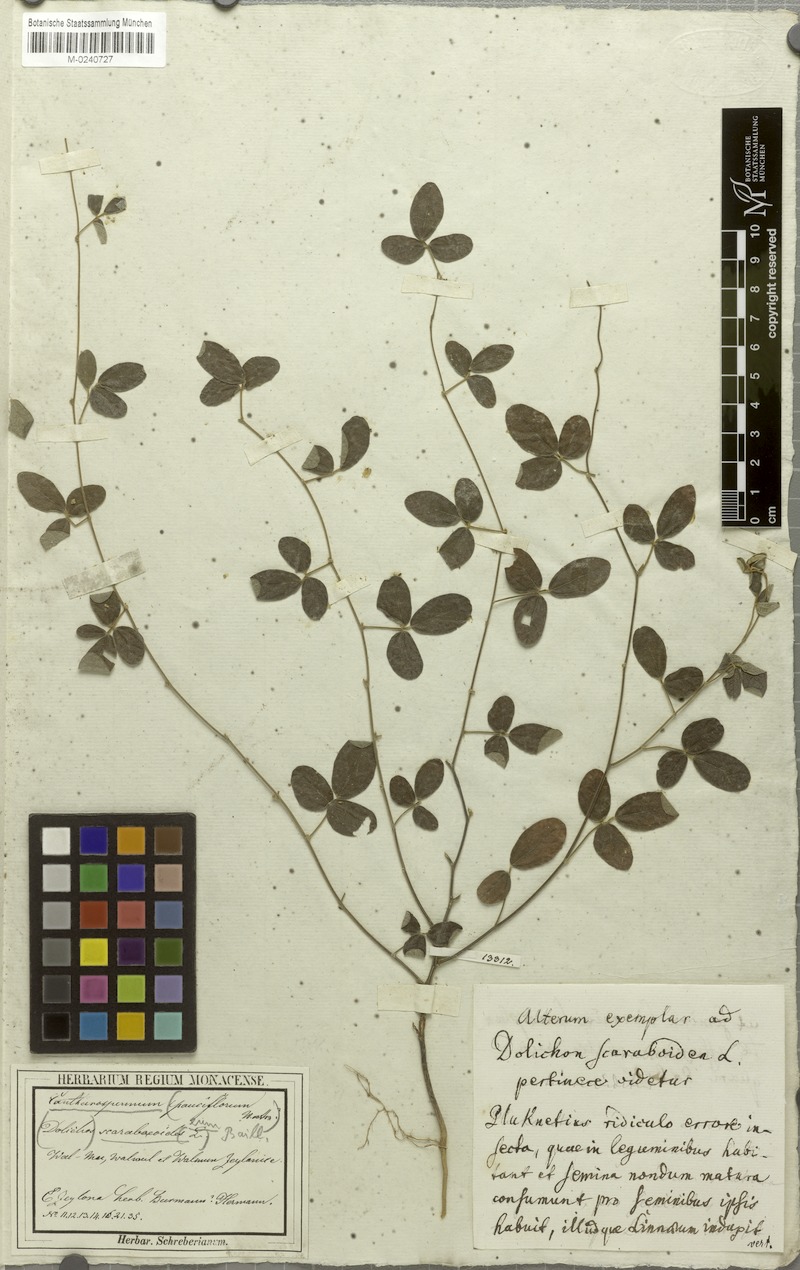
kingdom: Plantae
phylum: Tracheophyta
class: Magnoliopsida
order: Fabales
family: Fabaceae
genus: Cajanus
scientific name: Cajanus scarabaeoides
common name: Showy pigeonpea
